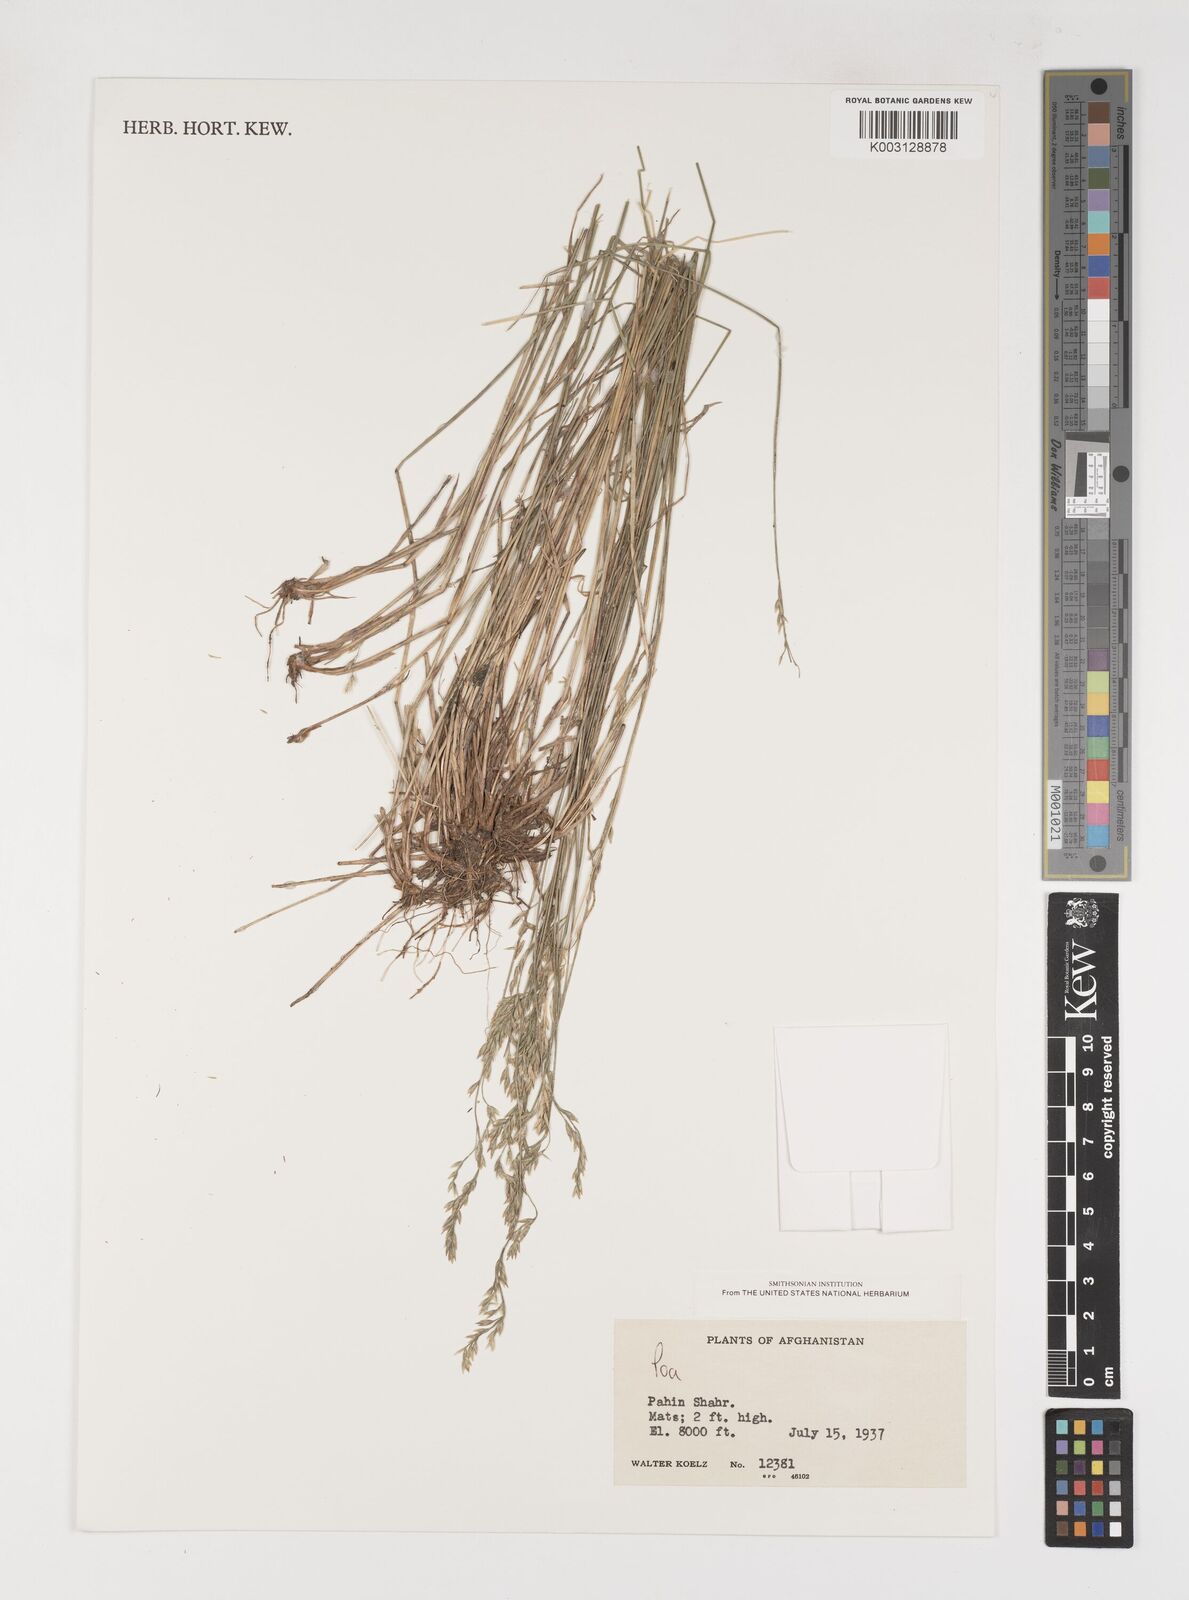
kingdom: Plantae
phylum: Tracheophyta
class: Liliopsida
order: Poales
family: Poaceae
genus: Poa
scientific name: Poa
